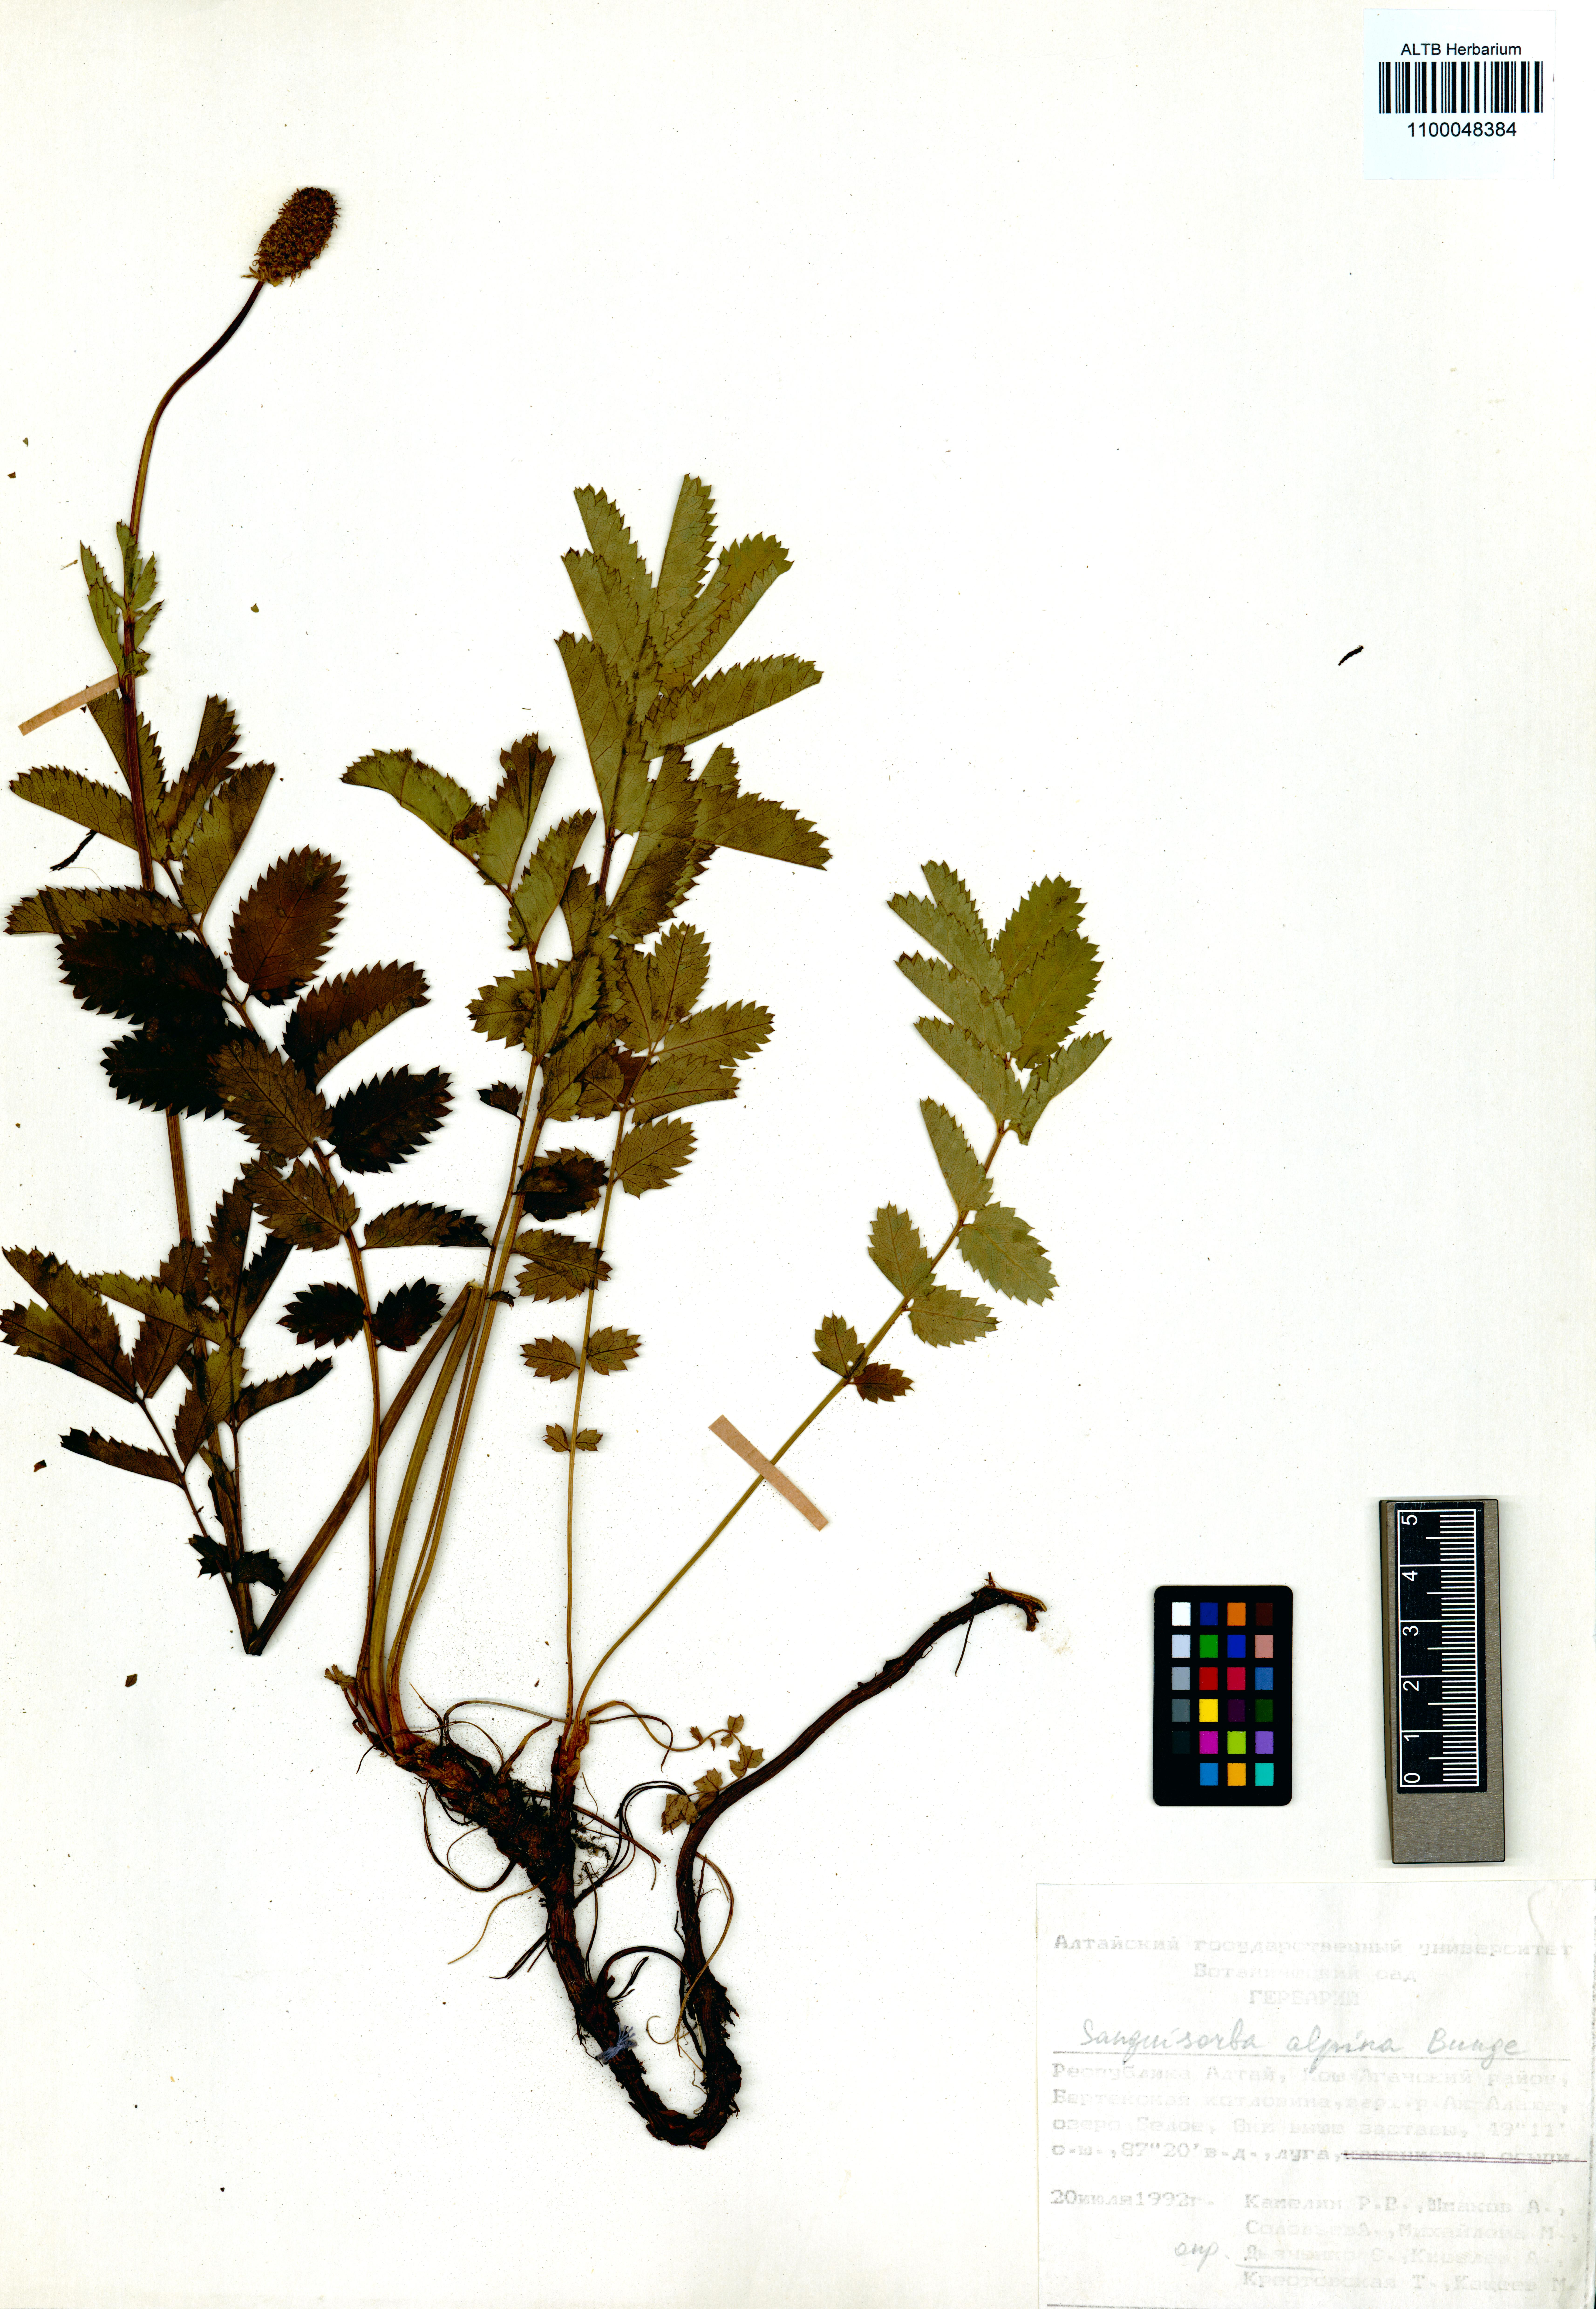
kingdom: Plantae
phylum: Tracheophyta
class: Magnoliopsida
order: Rosales
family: Rosaceae
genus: Sanguisorba
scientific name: Sanguisorba alpina
